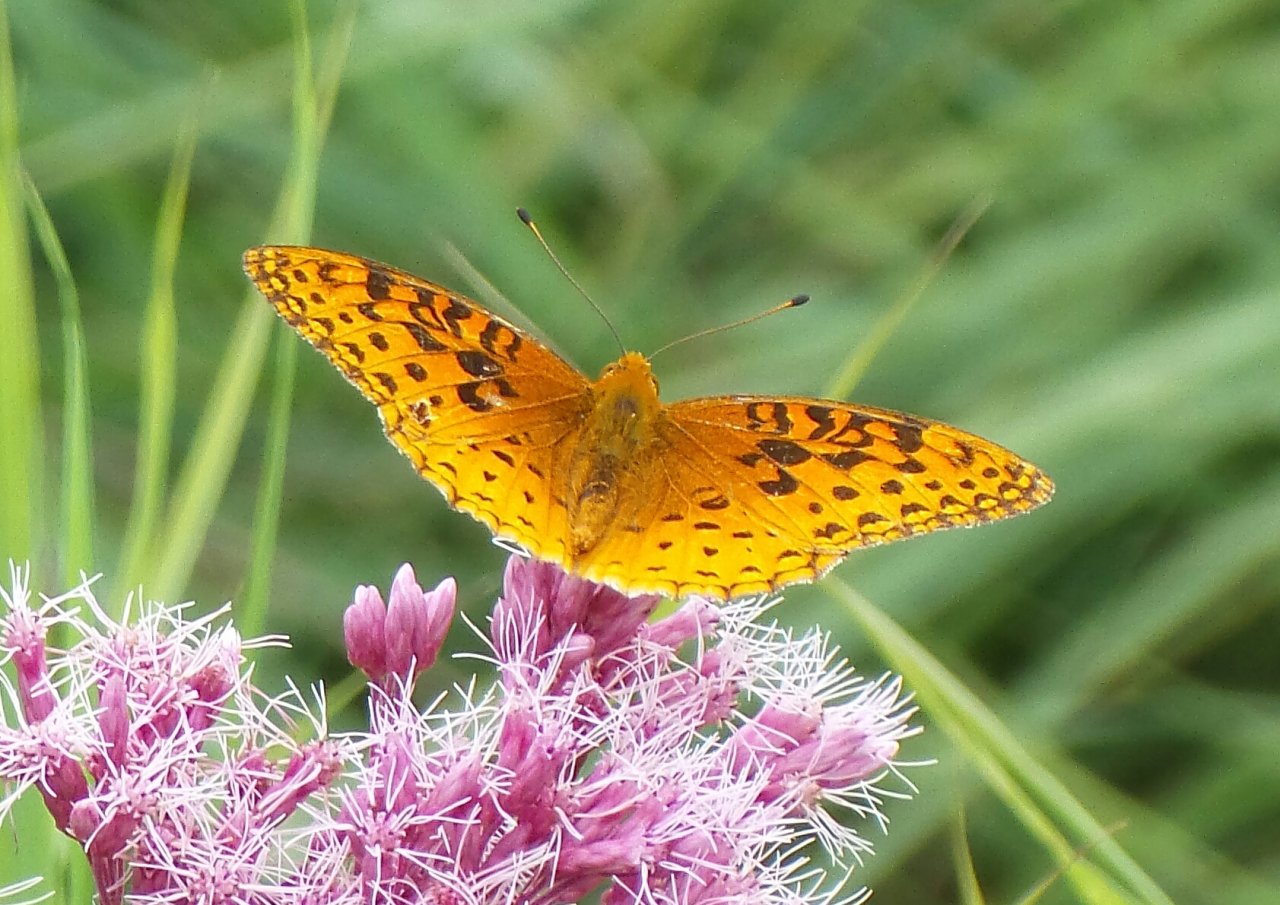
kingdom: Animalia
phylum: Arthropoda
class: Insecta
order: Lepidoptera
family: Nymphalidae
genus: Speyeria
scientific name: Speyeria aphrodite
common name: Aphrodite Fritillary
